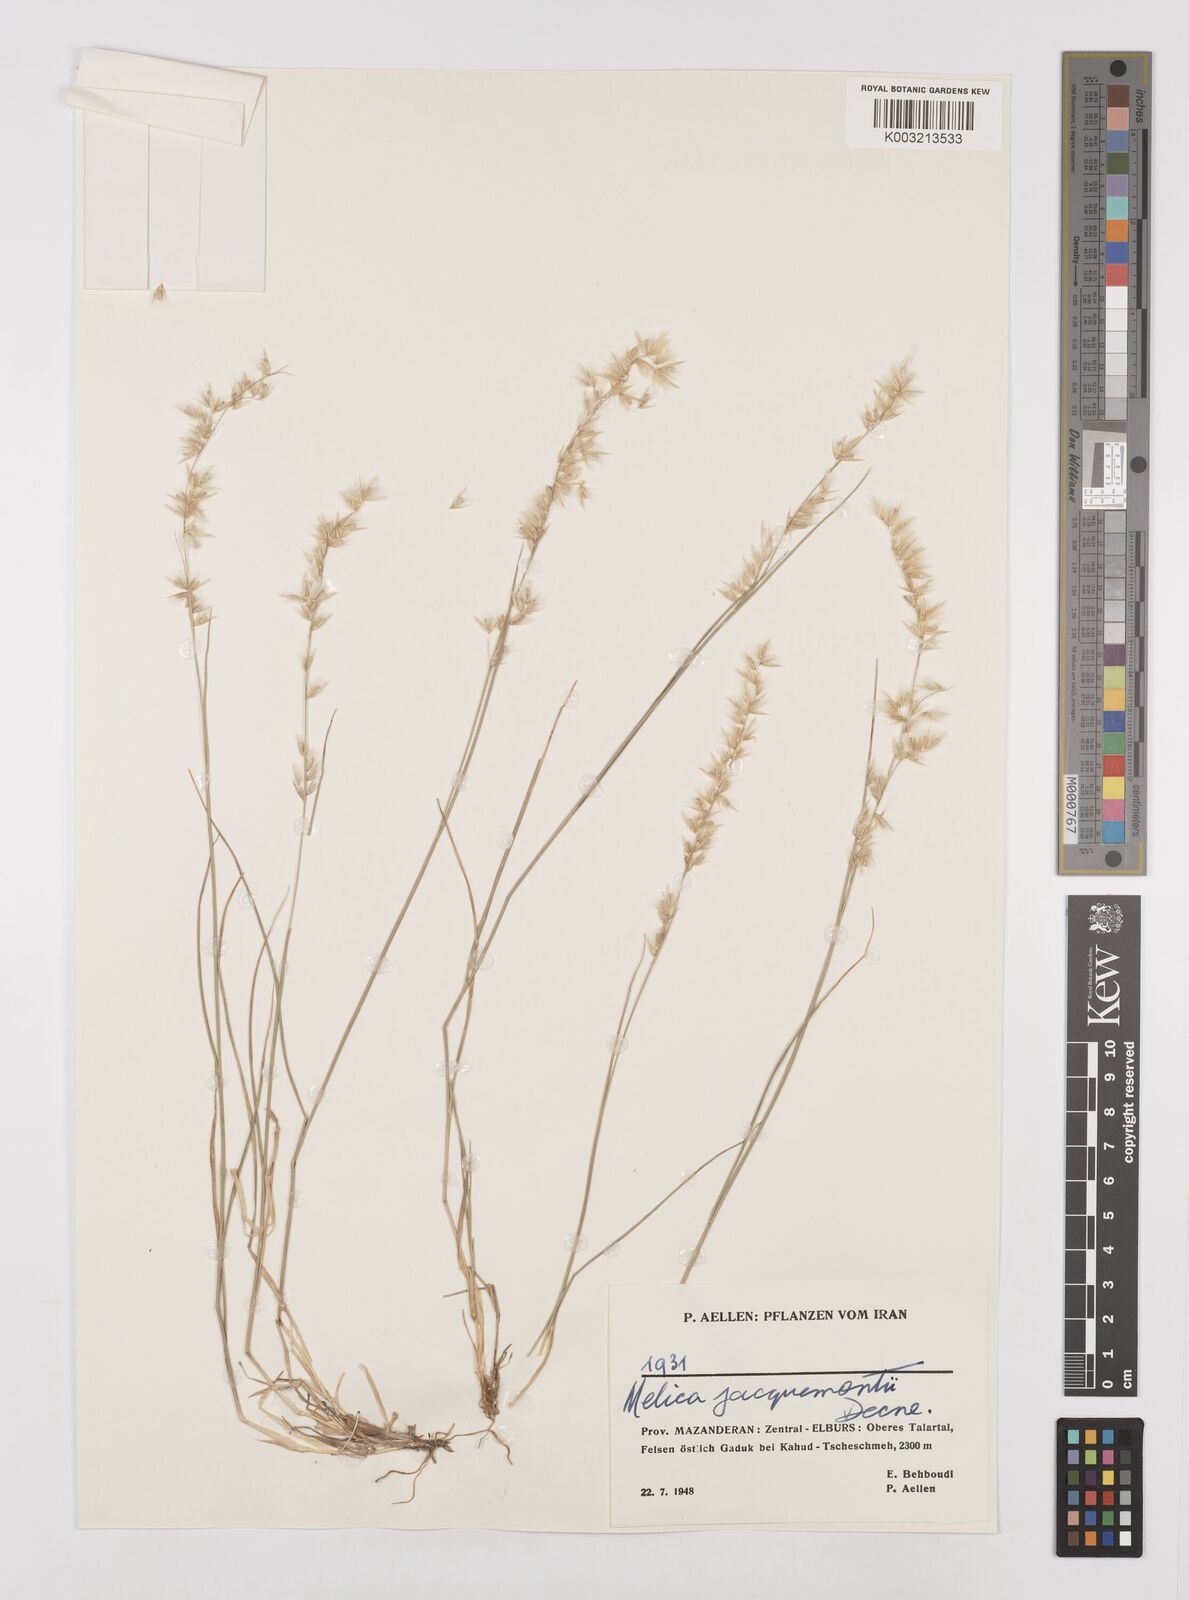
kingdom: Plantae
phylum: Tracheophyta
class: Liliopsida
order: Poales
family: Poaceae
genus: Melica
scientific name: Melica persica
